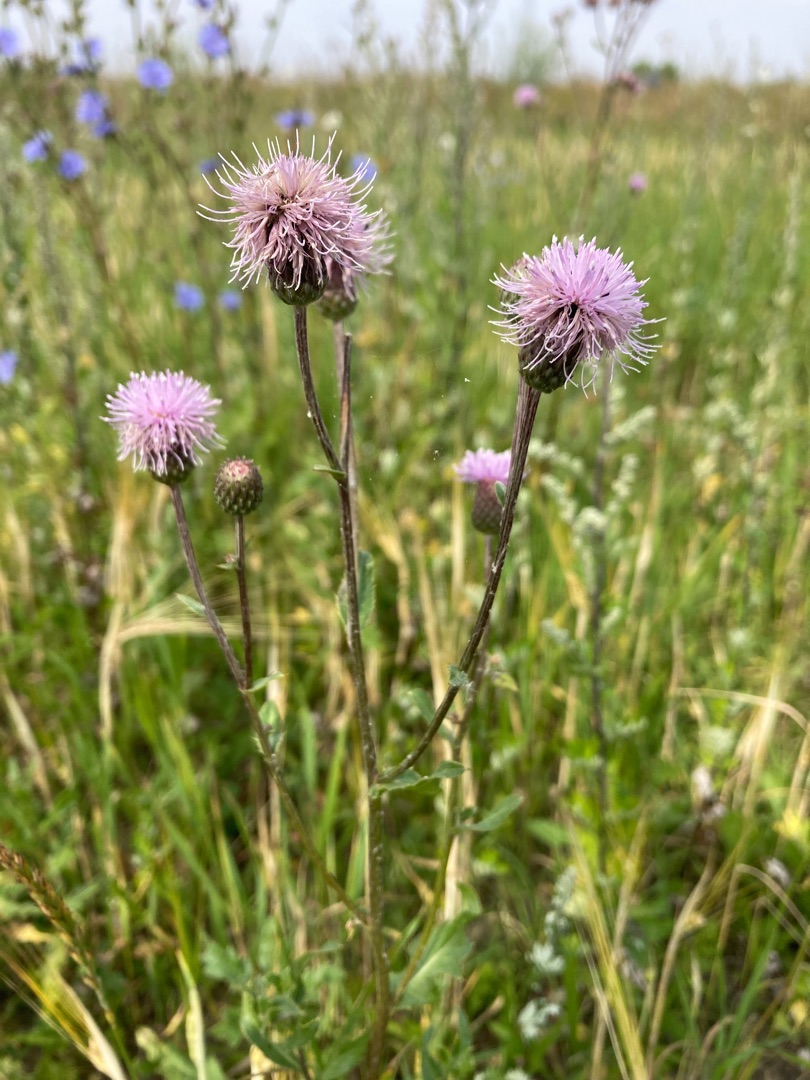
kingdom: Plantae
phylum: Tracheophyta
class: Magnoliopsida
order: Asterales
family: Asteraceae
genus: Cirsium
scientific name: Cirsium arvense
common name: Ager-tidsel
